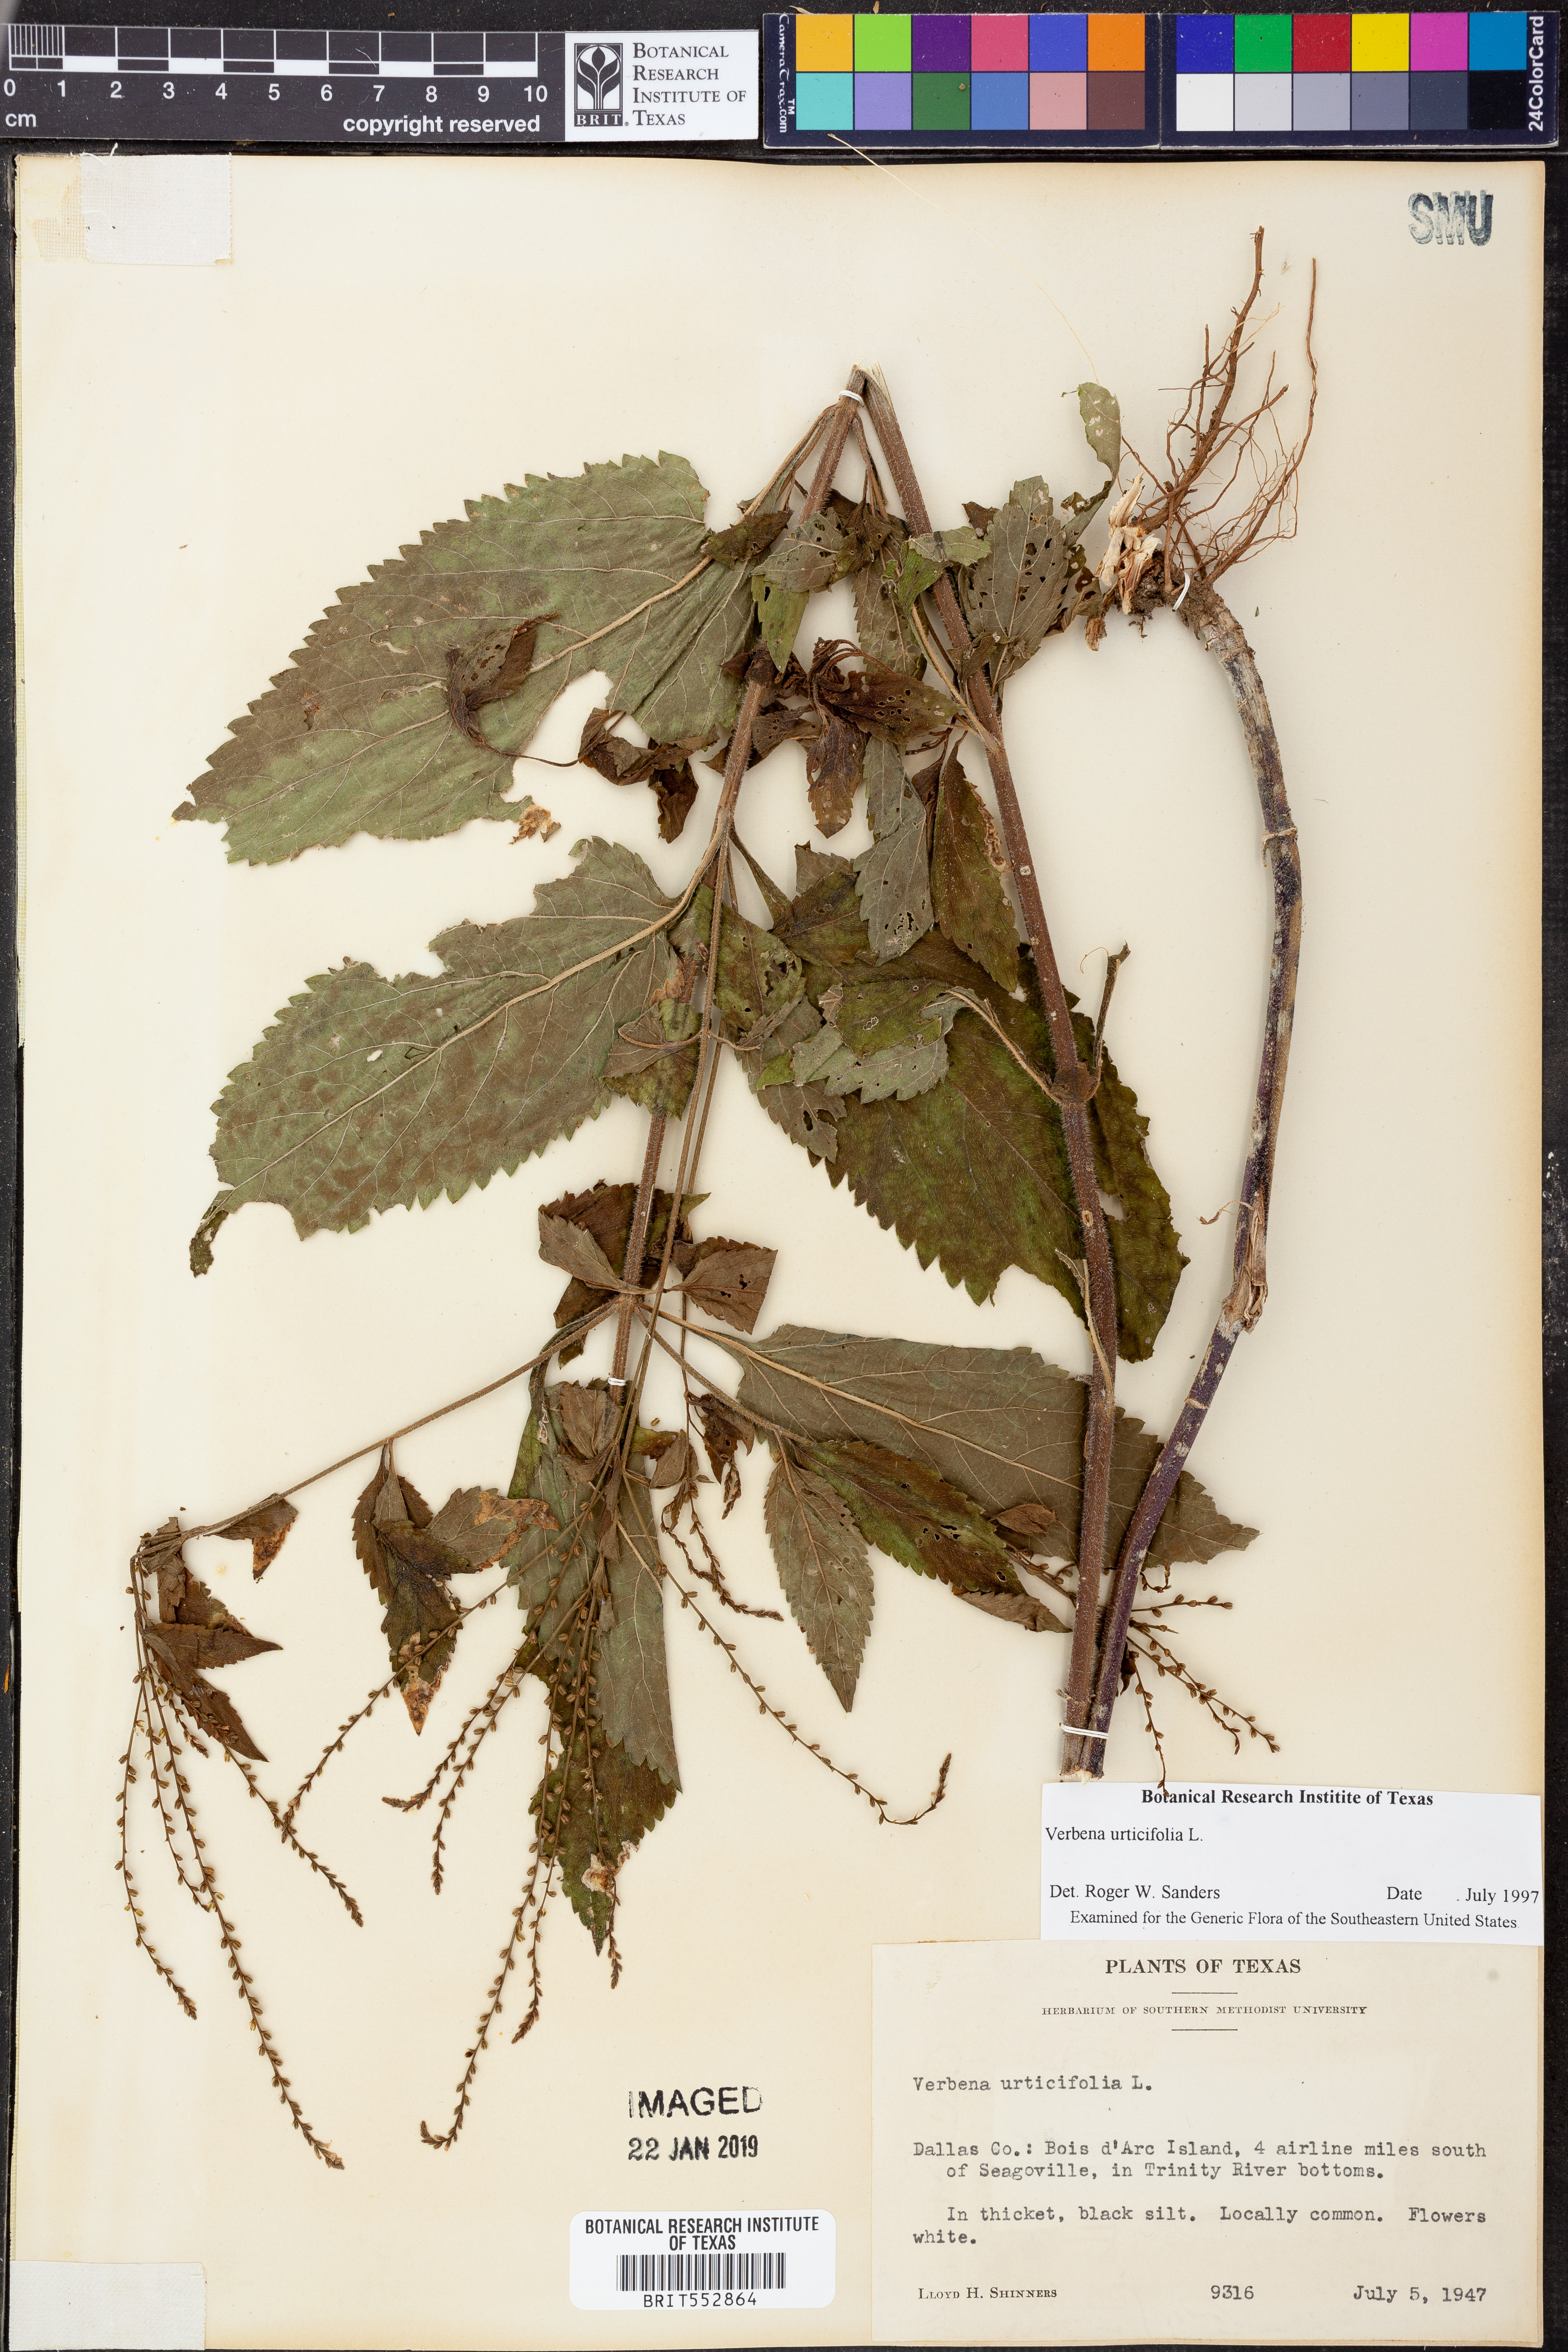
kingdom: Plantae
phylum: Tracheophyta
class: Magnoliopsida
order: Lamiales
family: Verbenaceae
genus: Verbena
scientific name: Verbena urticifolia
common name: Nettle-leaved vervain
